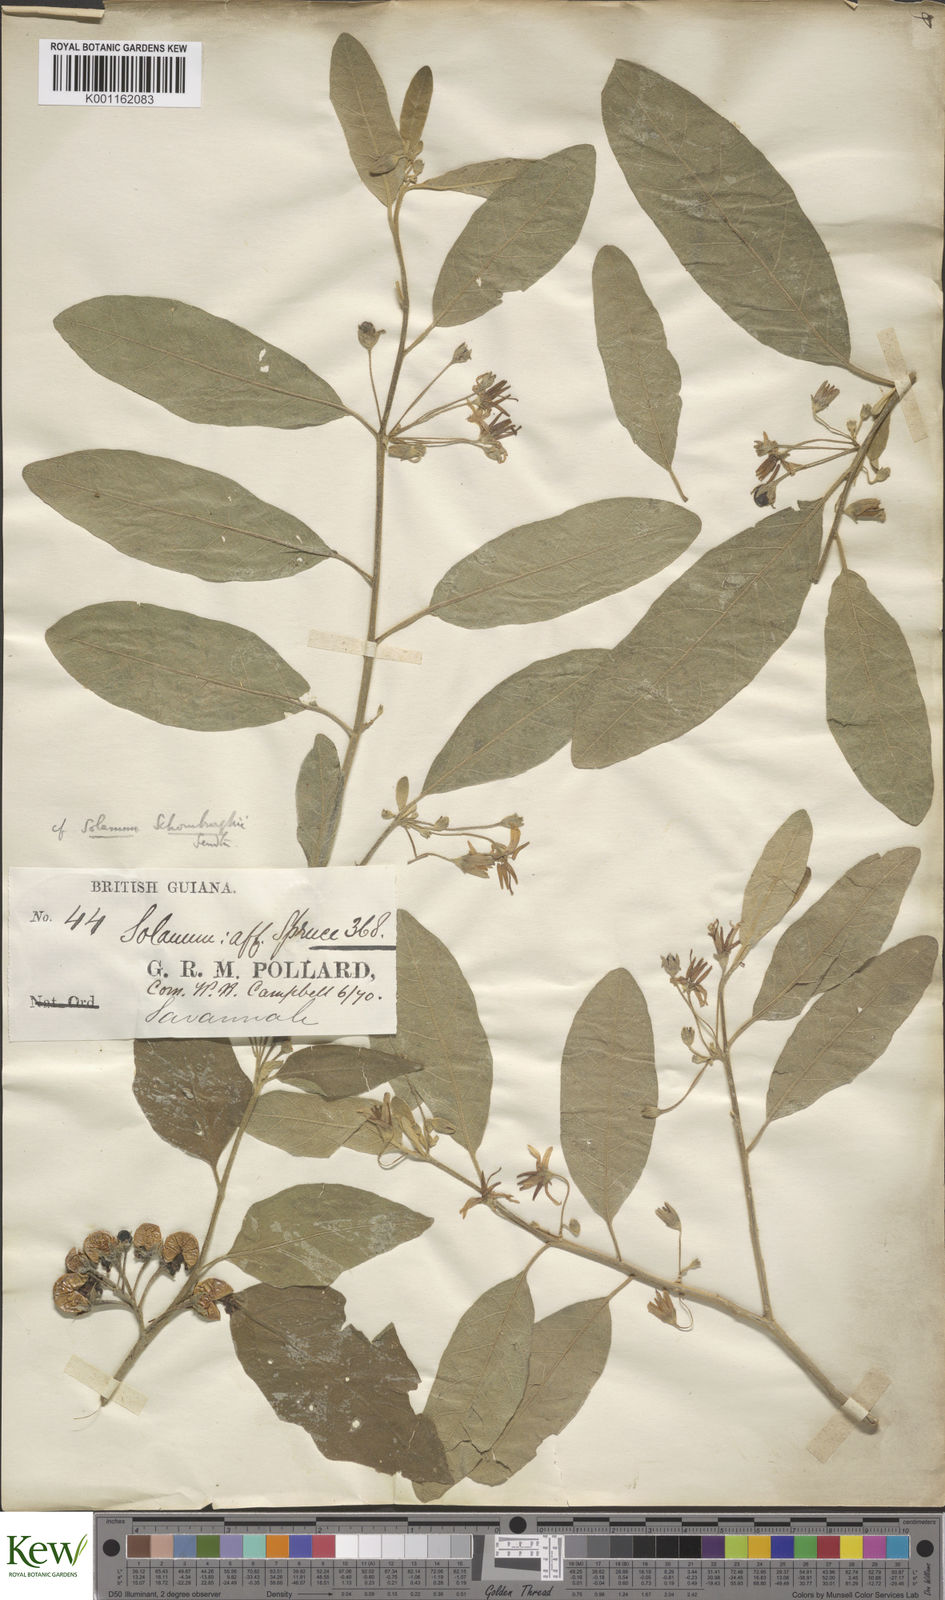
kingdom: Plantae
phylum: Tracheophyta
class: Magnoliopsida
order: Solanales
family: Solanaceae
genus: Solanum
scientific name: Solanum
